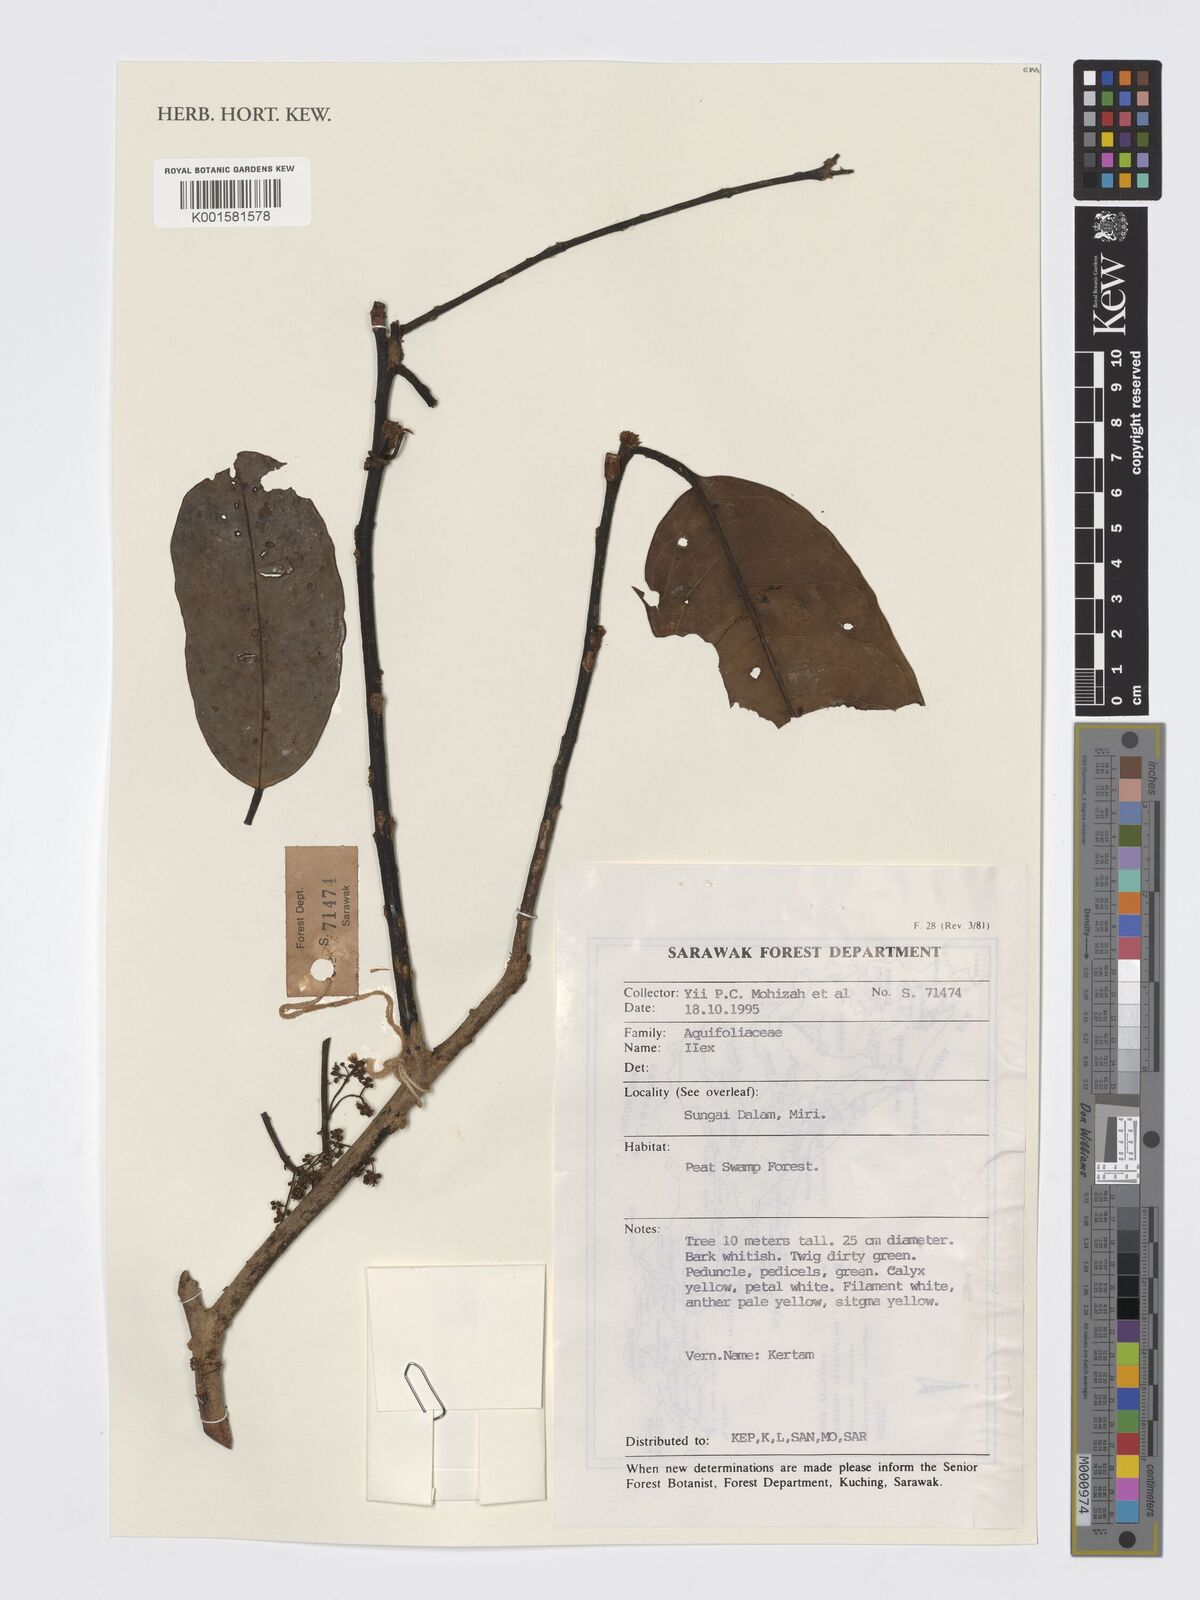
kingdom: Plantae
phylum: Tracheophyta
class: Magnoliopsida
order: Aquifoliales
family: Aquifoliaceae
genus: Ilex
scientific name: Ilex
